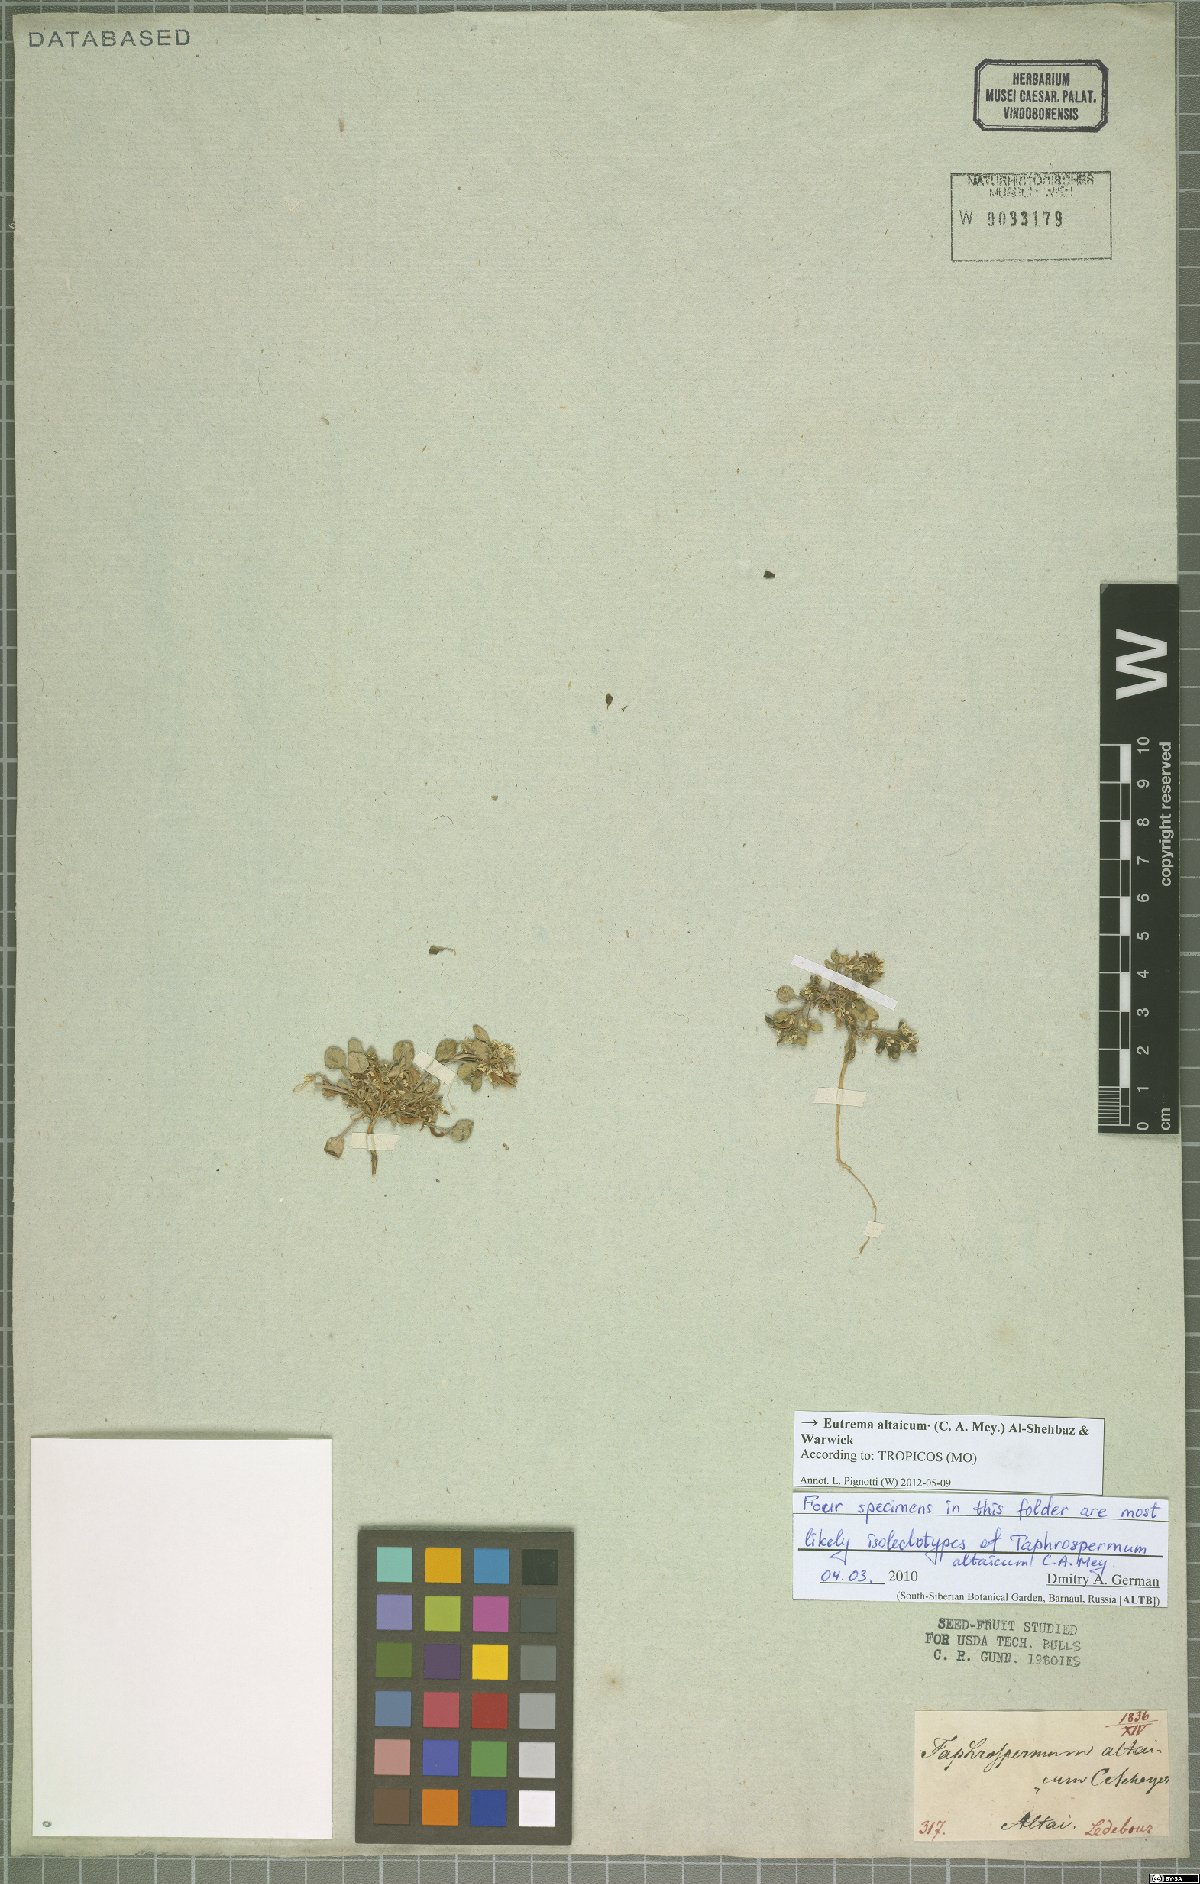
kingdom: Plantae
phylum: Tracheophyta
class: Magnoliopsida
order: Brassicales
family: Brassicaceae
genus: Eutrema
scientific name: Eutrema altaicum
